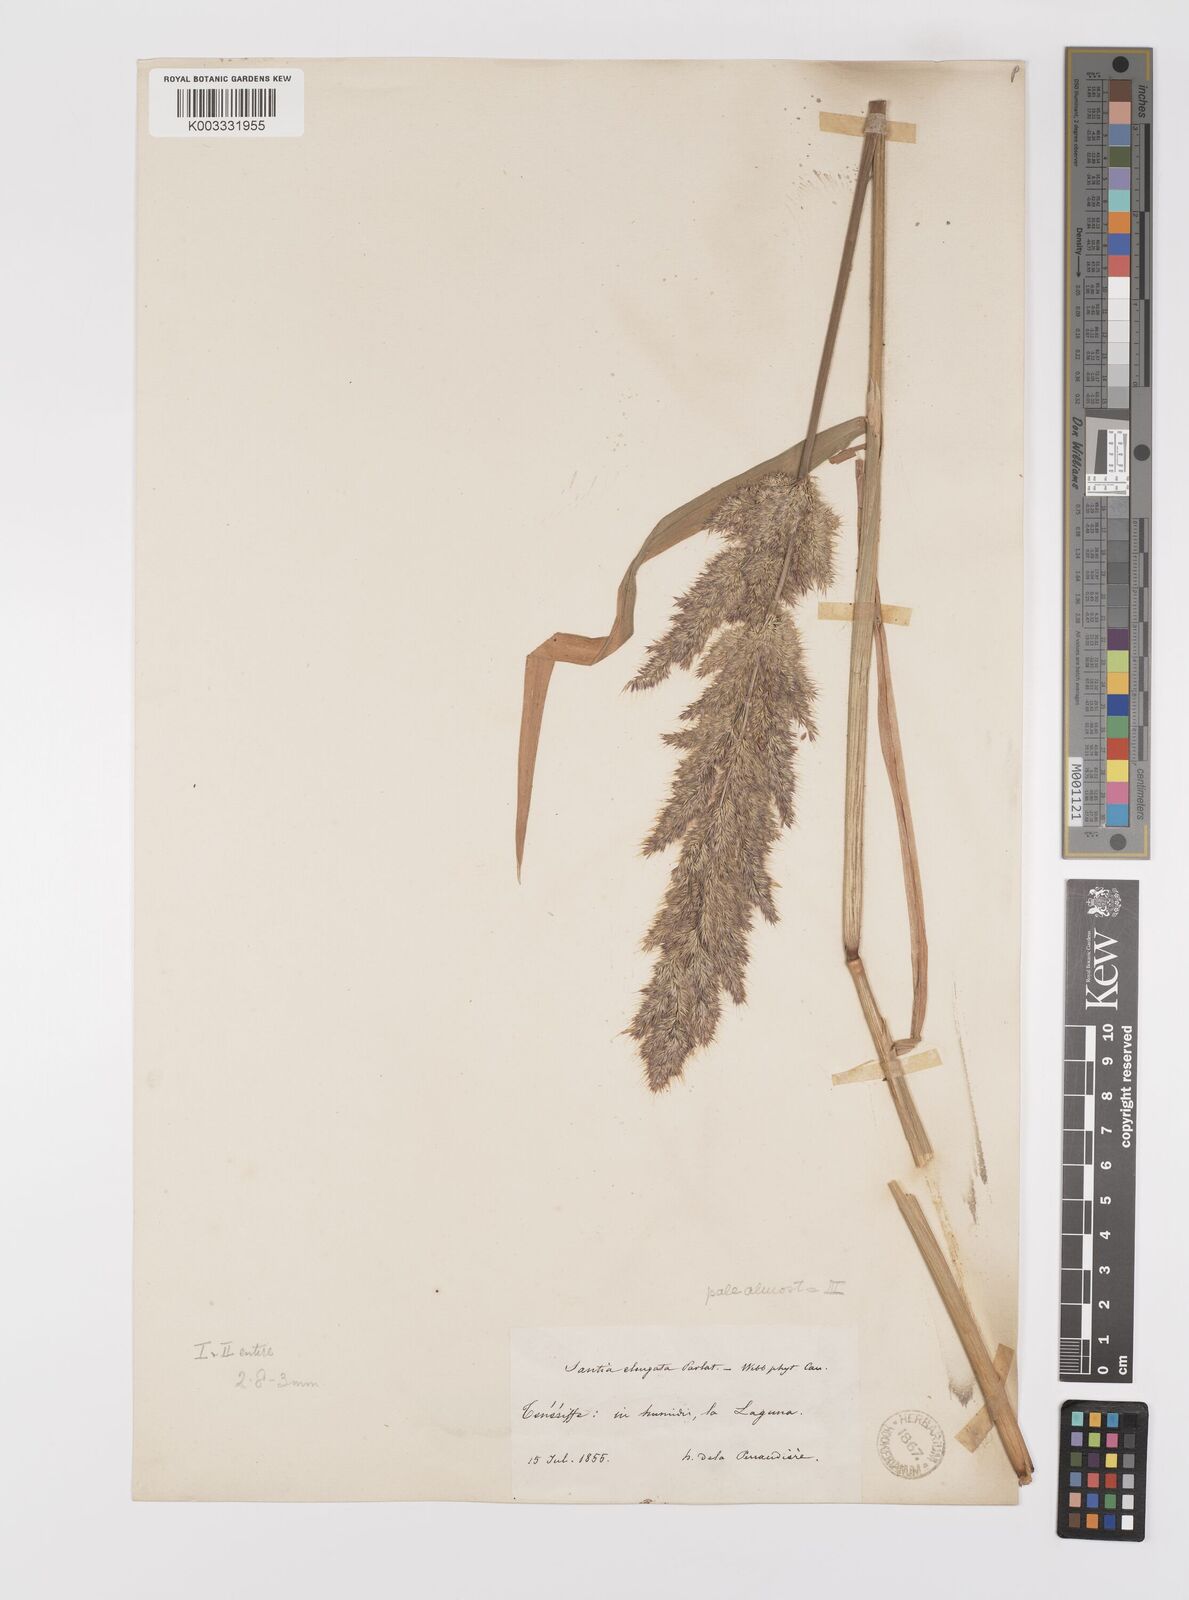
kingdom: Plantae
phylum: Tracheophyta
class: Liliopsida
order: Poales
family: Poaceae
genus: Polypogon
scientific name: Polypogon fugax
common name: Asia minor bluegrass
